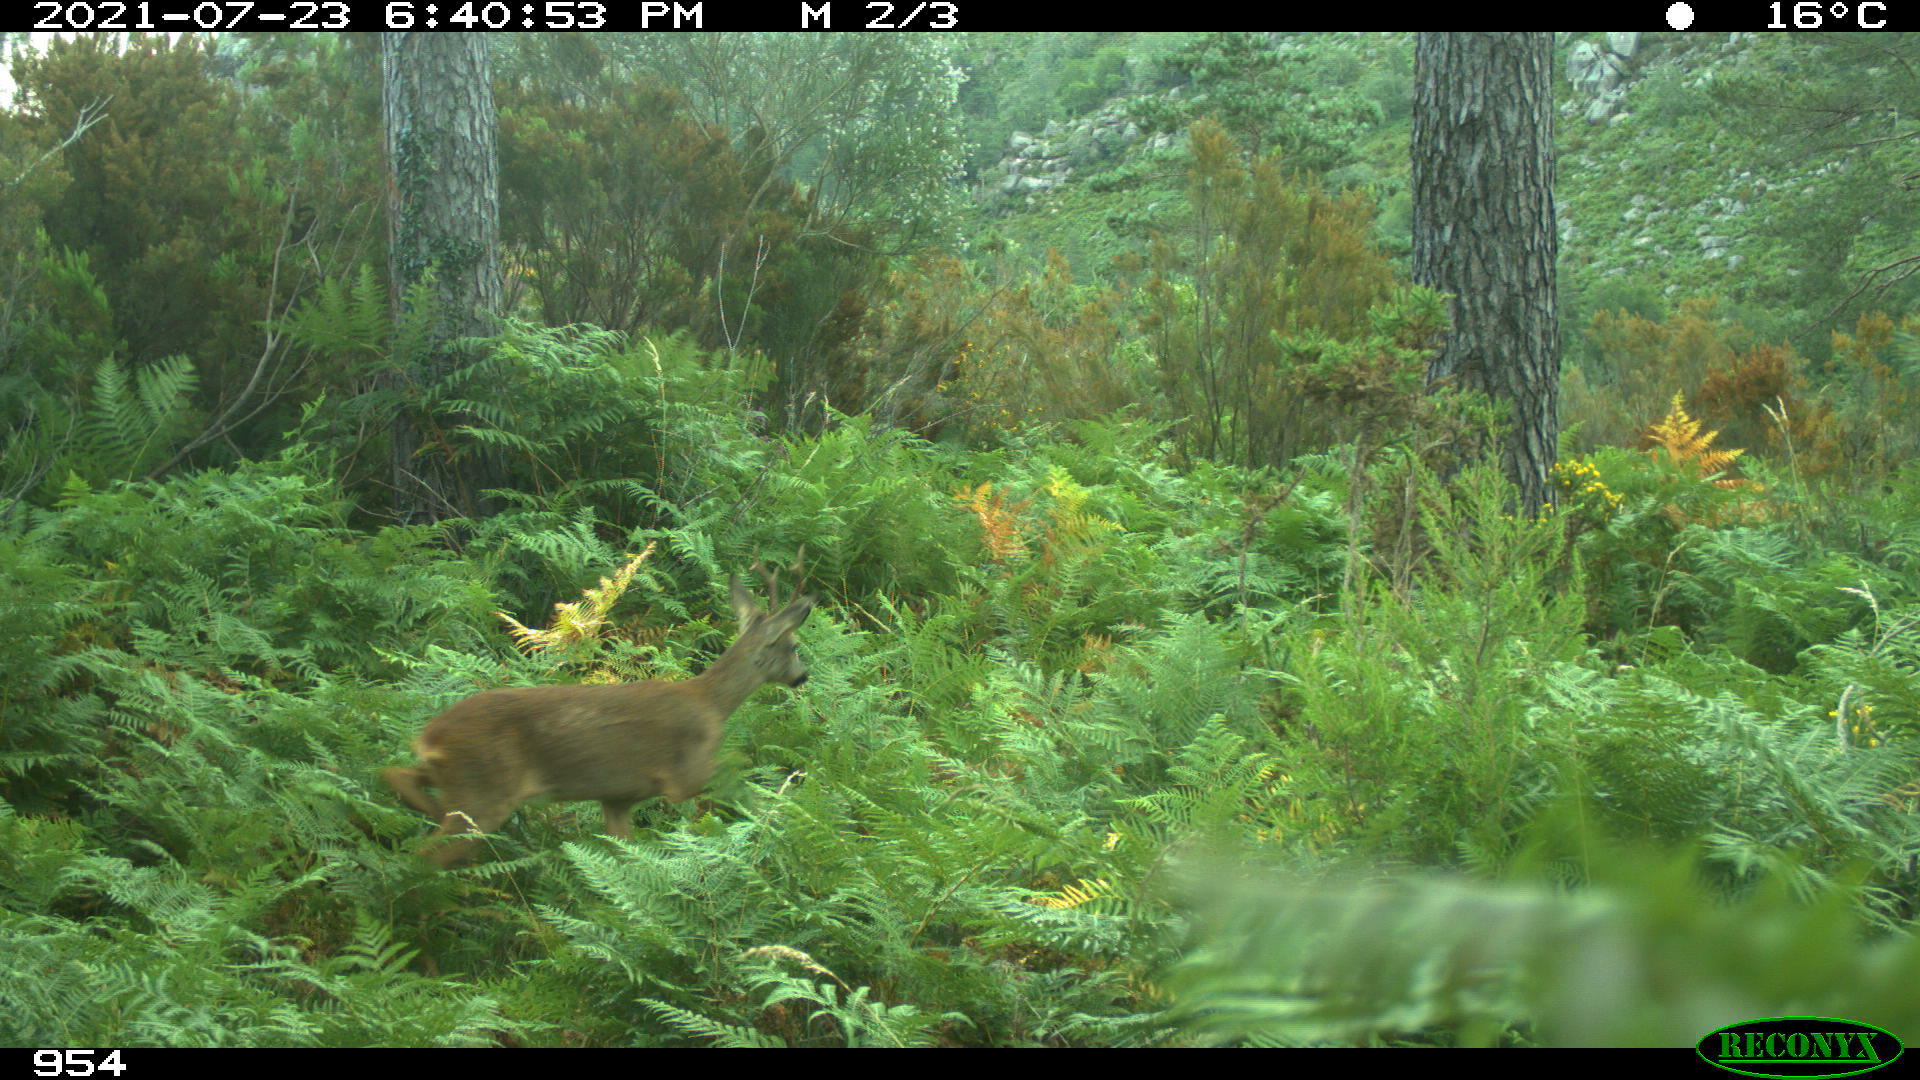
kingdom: Animalia
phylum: Chordata
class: Mammalia
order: Artiodactyla
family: Cervidae
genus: Capreolus
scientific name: Capreolus capreolus
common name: Western roe deer
